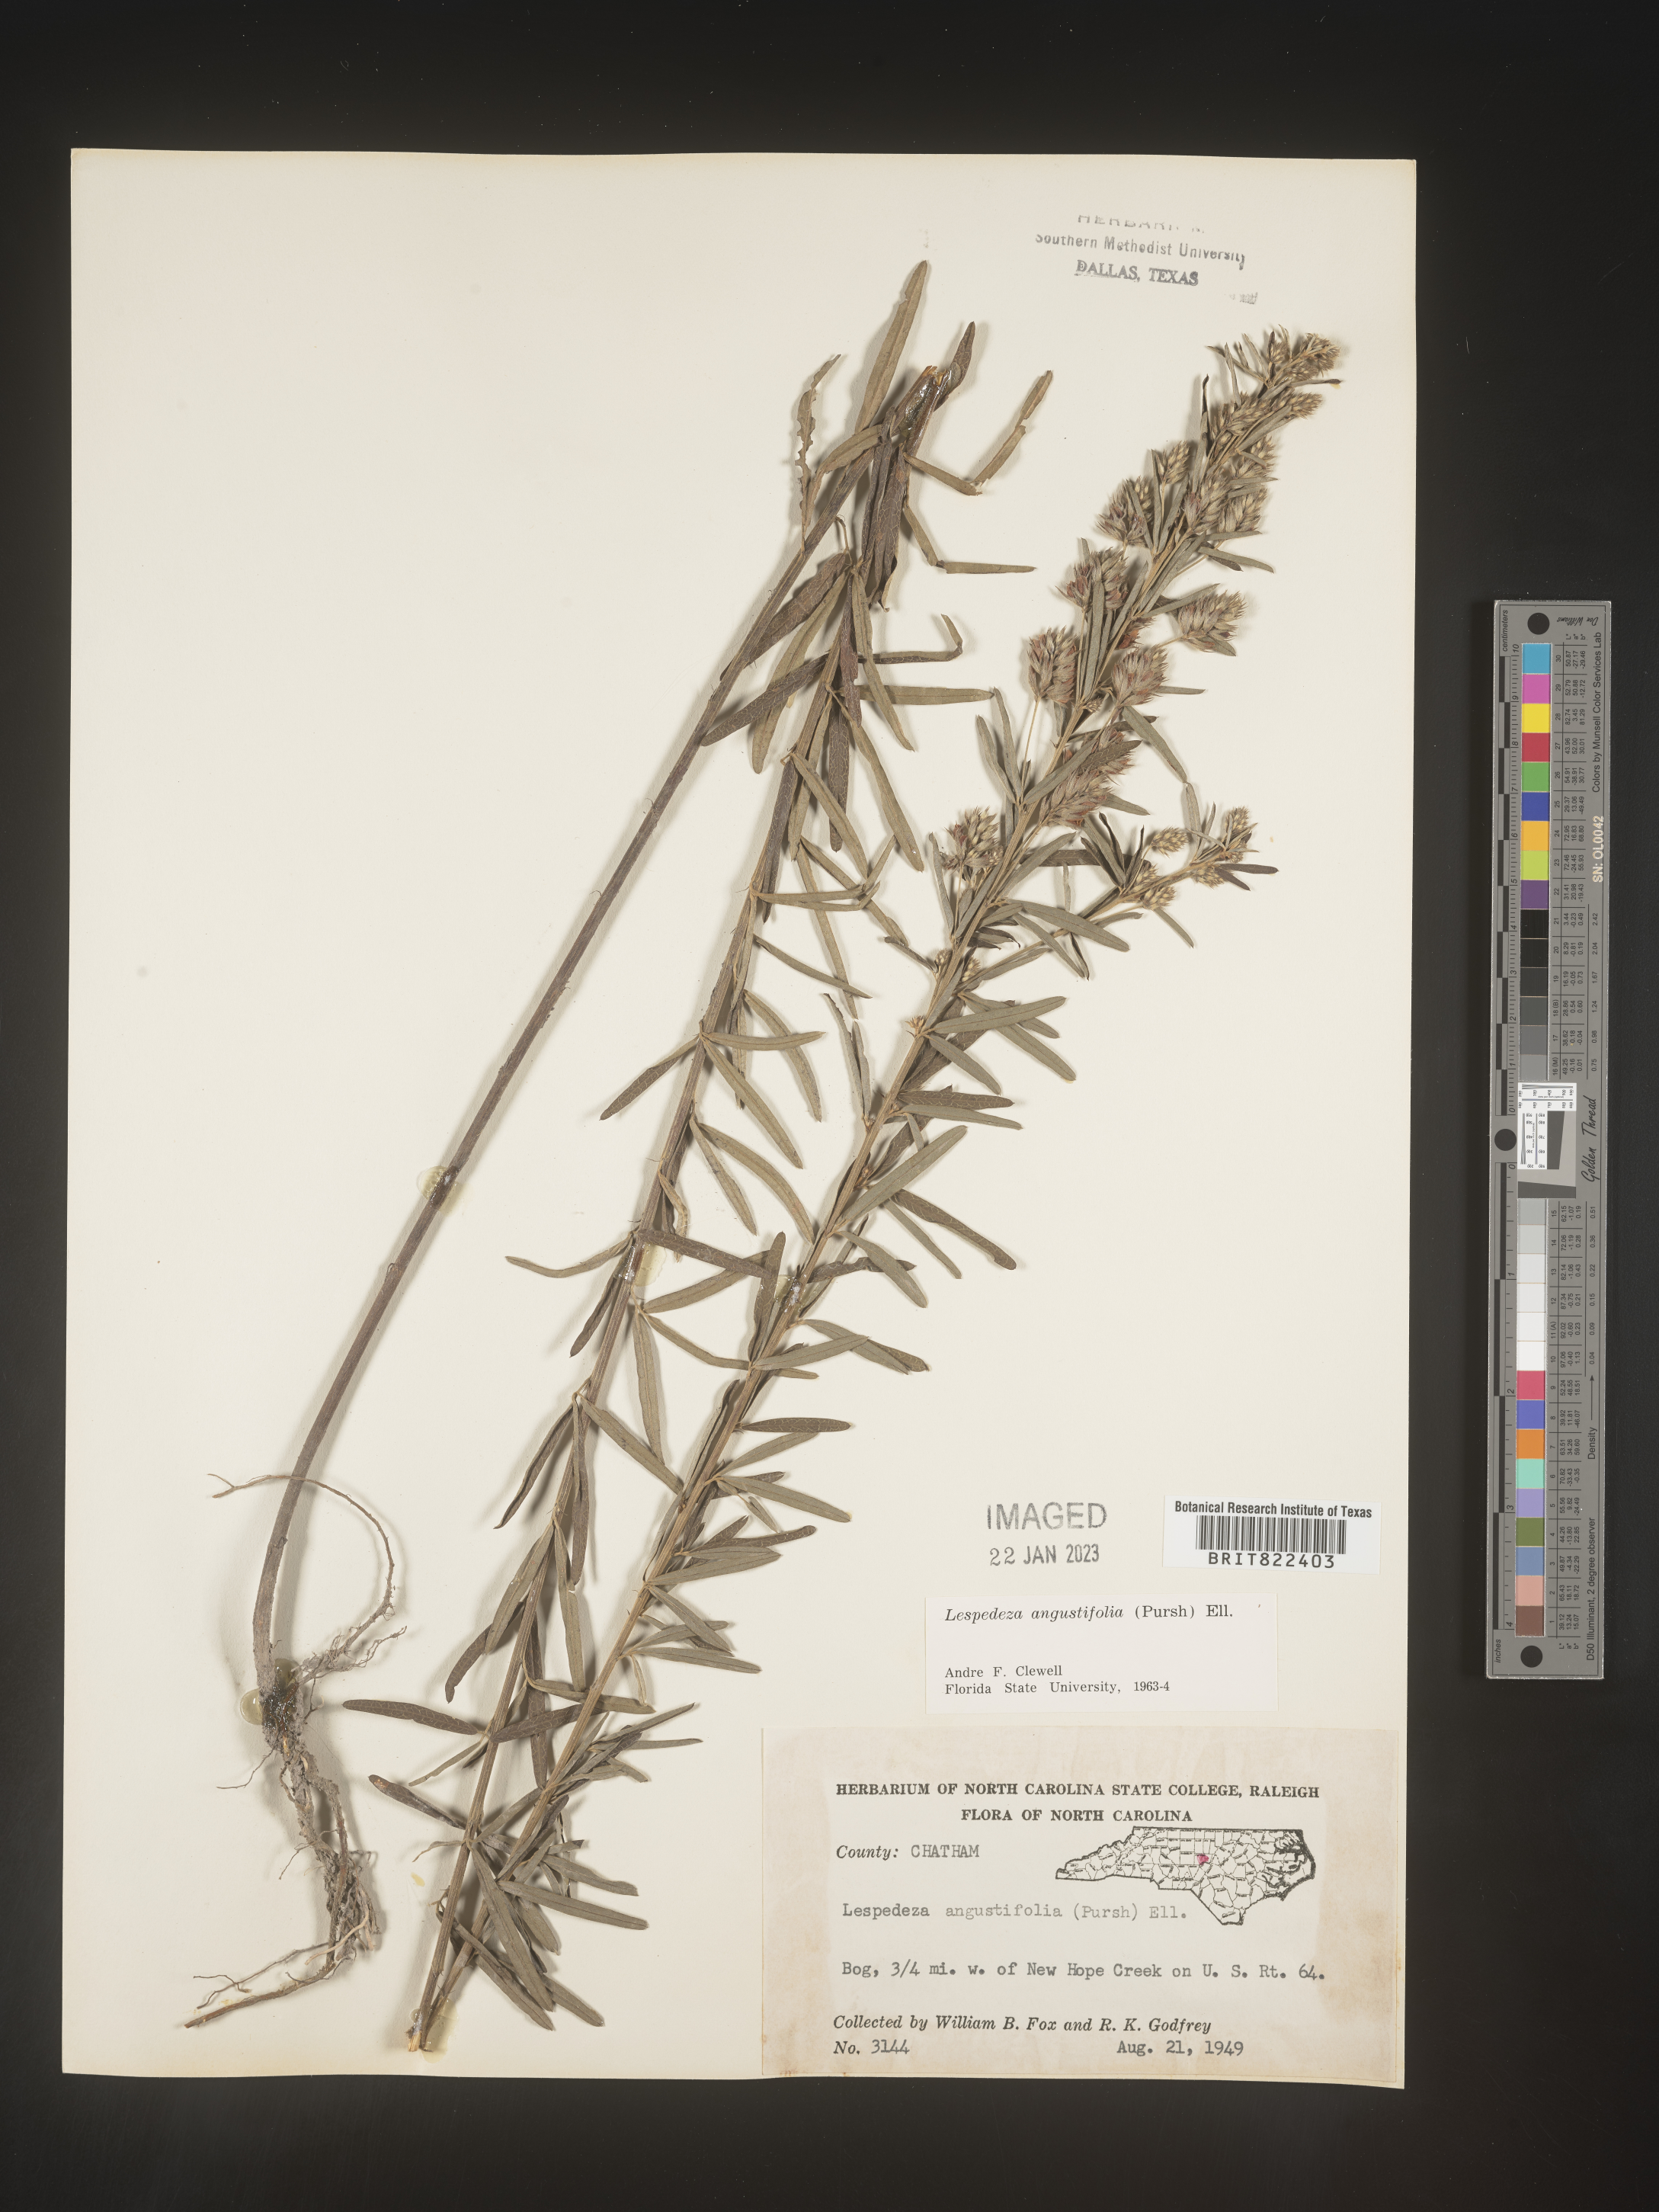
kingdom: Plantae
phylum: Tracheophyta
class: Magnoliopsida
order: Fabales
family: Fabaceae
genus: Lespedeza
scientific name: Lespedeza
